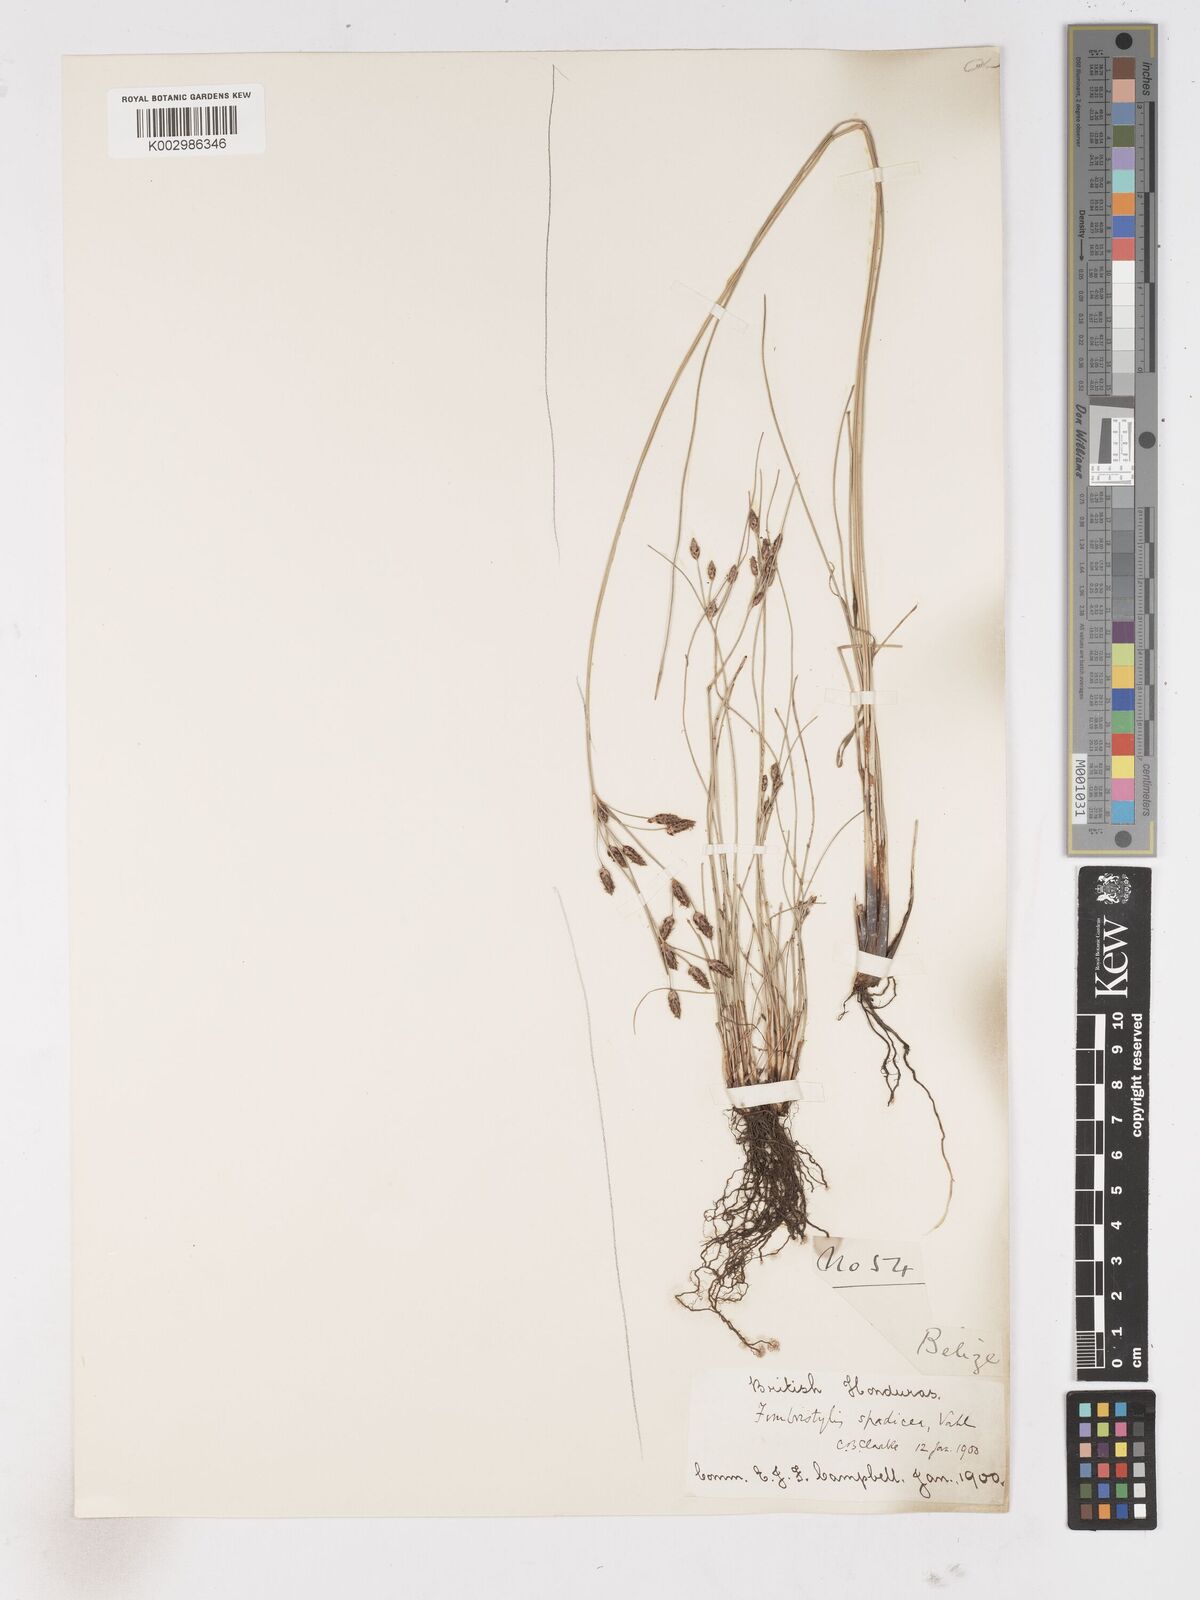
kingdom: Plantae
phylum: Tracheophyta
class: Liliopsida
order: Poales
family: Cyperaceae
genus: Fimbristylis
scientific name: Fimbristylis spadicea
